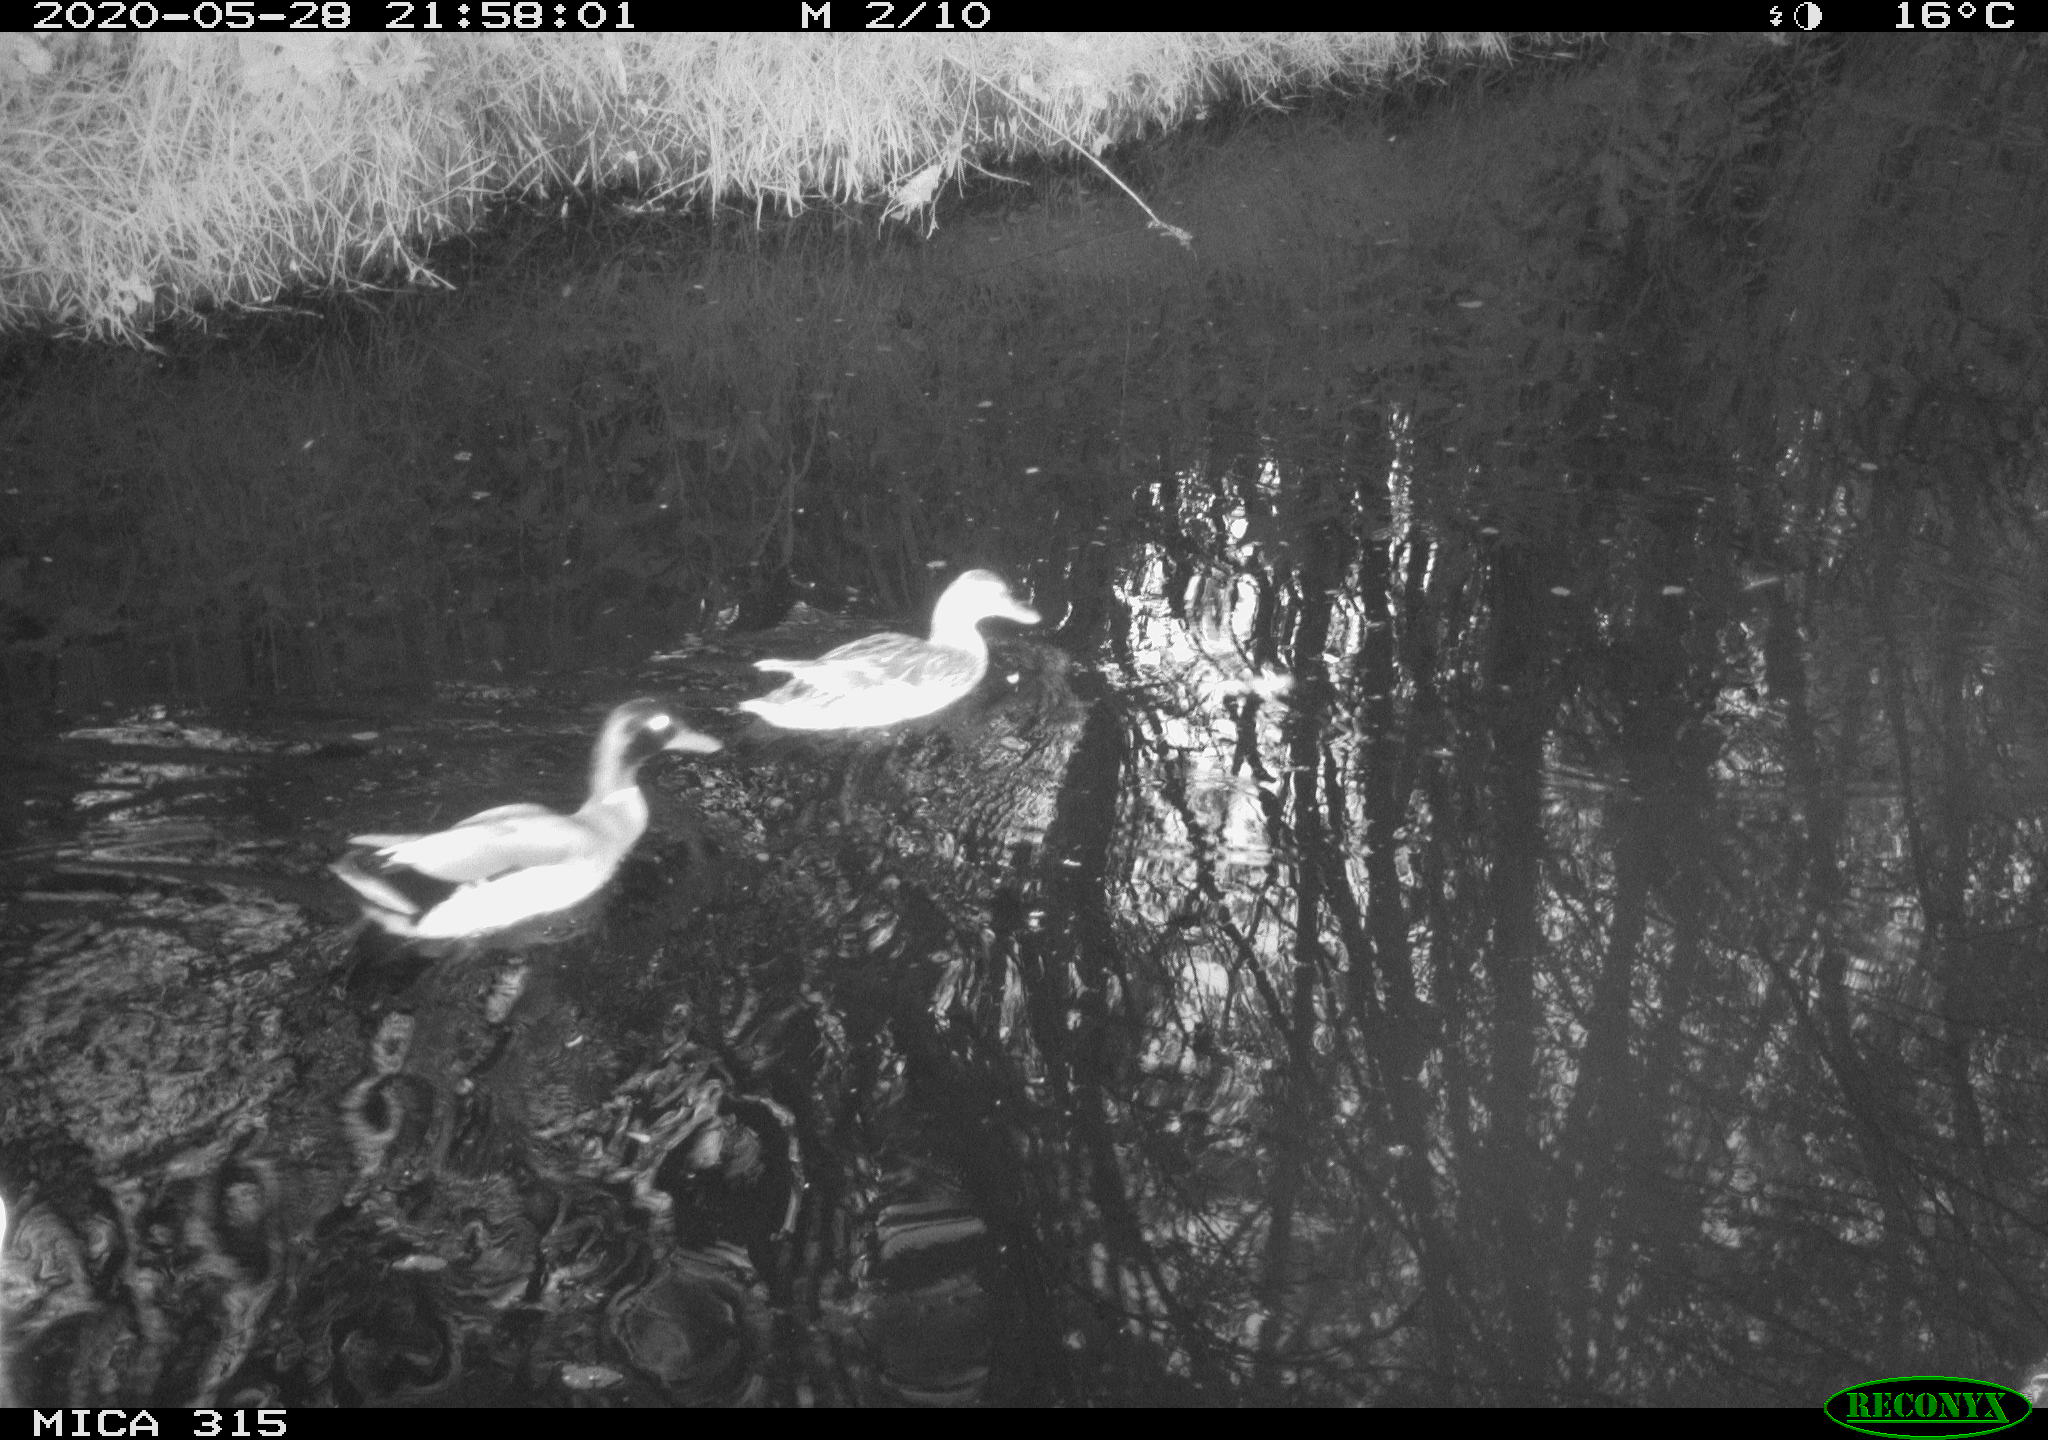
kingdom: Animalia
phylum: Chordata
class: Aves
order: Anseriformes
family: Anatidae
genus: Anas
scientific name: Anas platyrhynchos
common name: Mallard
